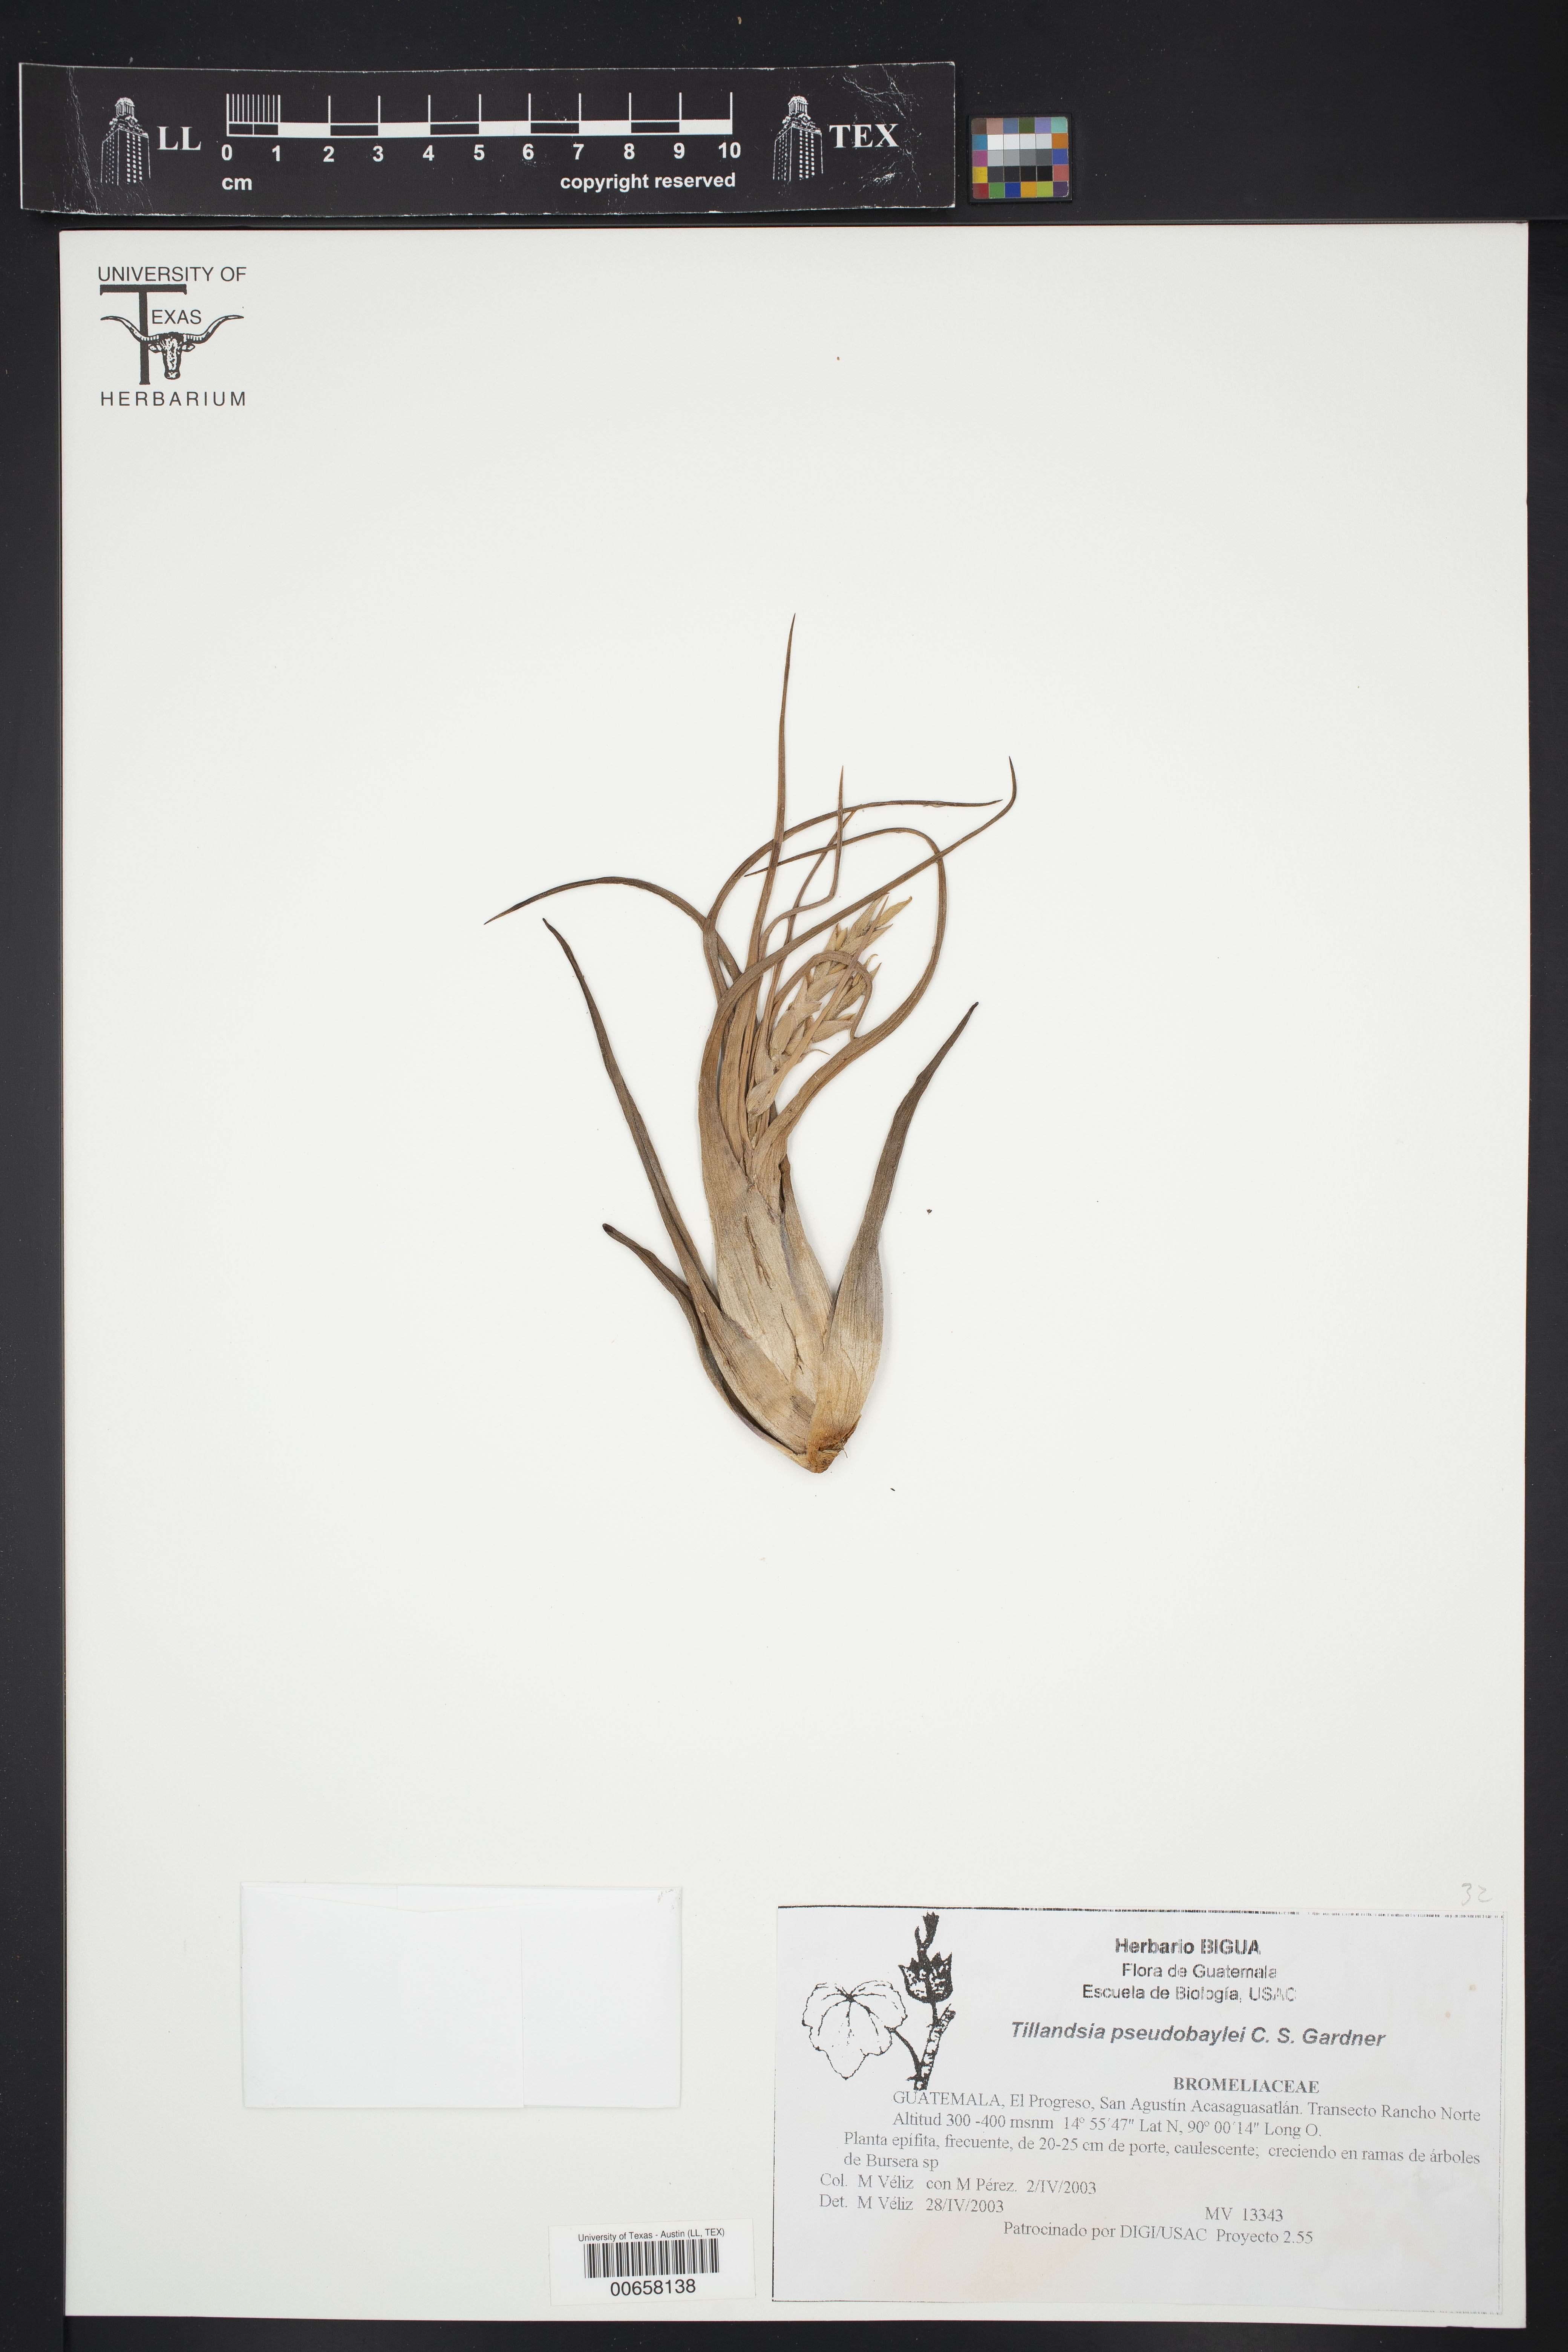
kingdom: Plantae
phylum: Tracheophyta
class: Liliopsida
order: Poales
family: Bromeliaceae
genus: Tillandsia
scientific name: Tillandsia pseudobaileyi
